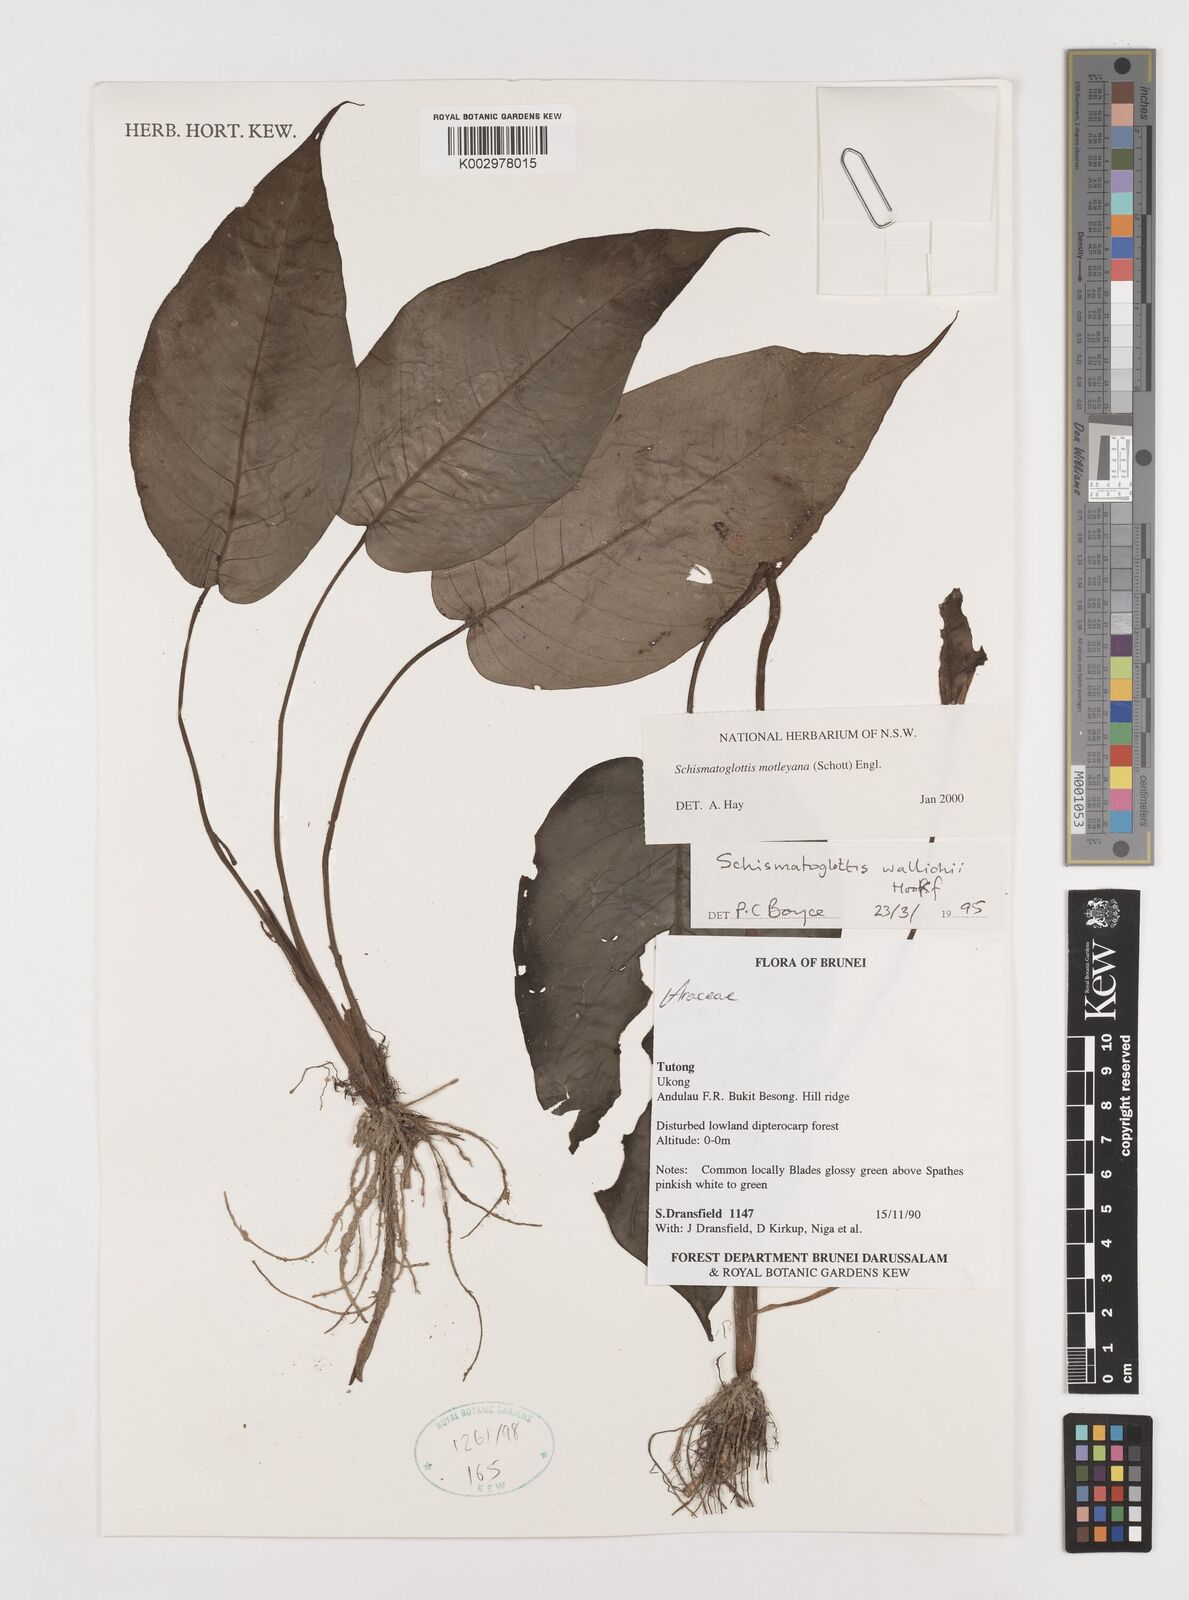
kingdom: Plantae
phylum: Tracheophyta
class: Liliopsida
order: Alismatales
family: Araceae
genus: Schismatoglottis
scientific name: Schismatoglottis motleyana
